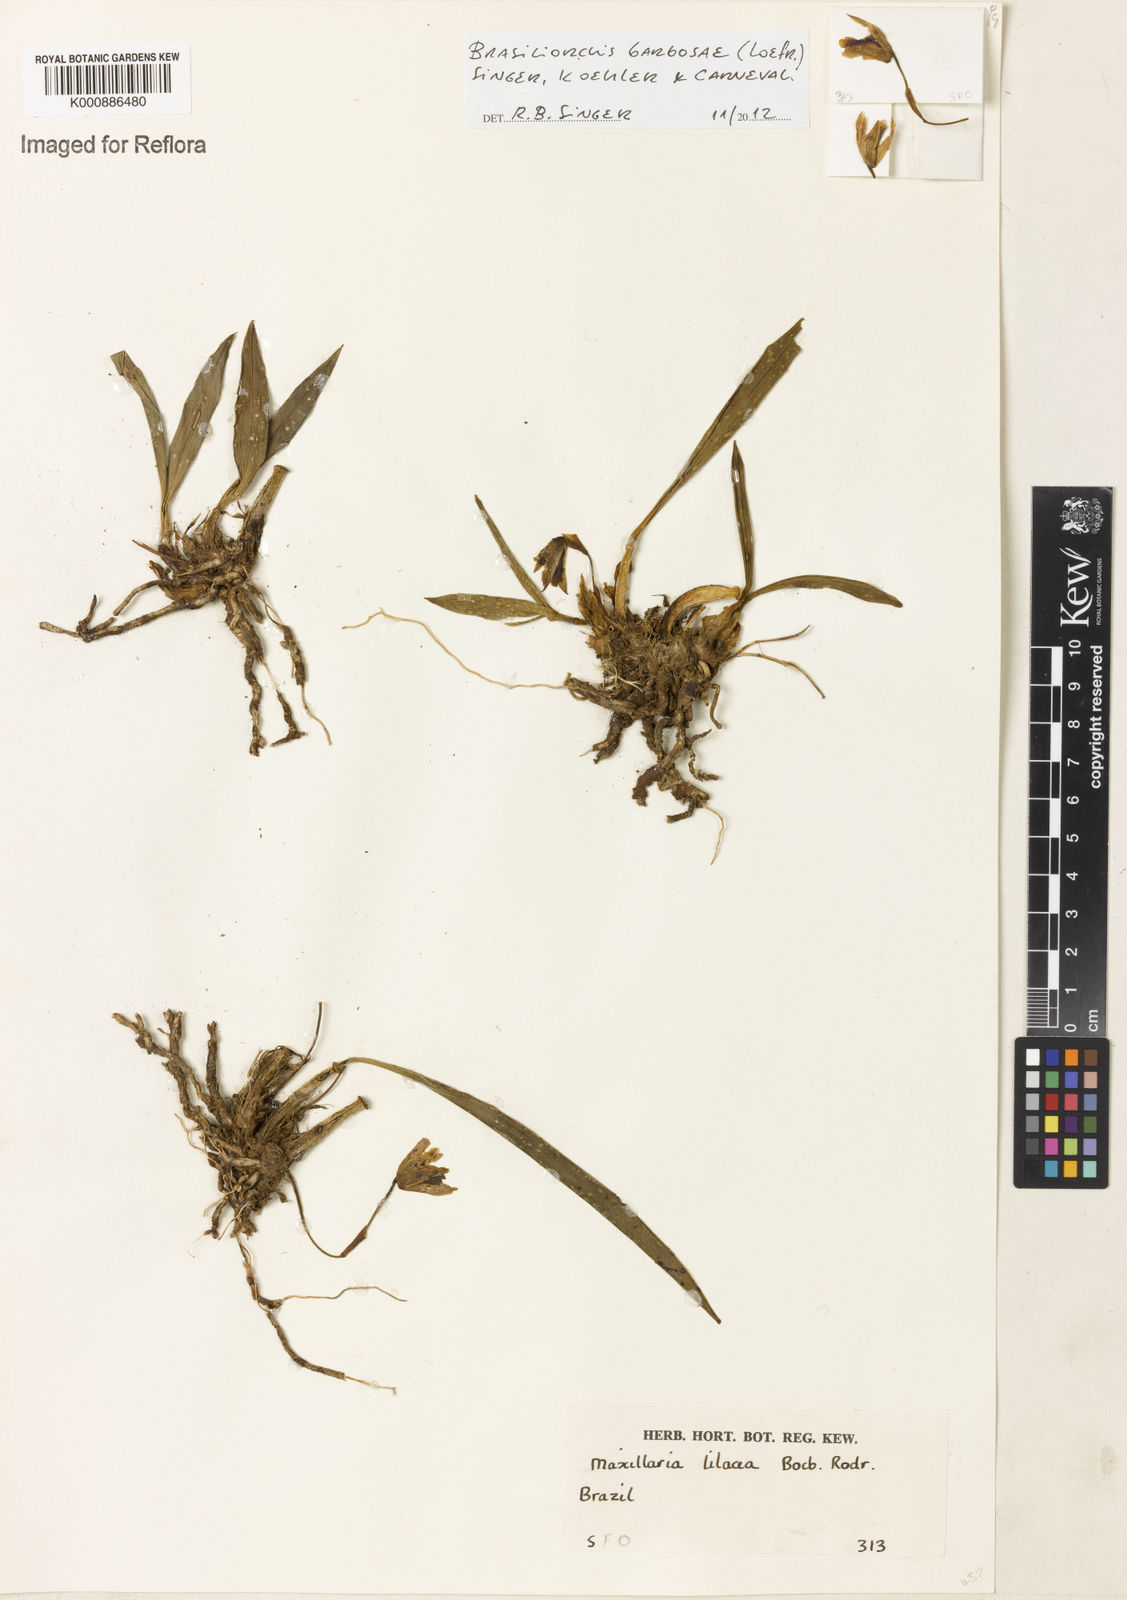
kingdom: Plantae
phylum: Tracheophyta
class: Liliopsida
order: Asparagales
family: Orchidaceae
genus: Maxillaria
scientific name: Maxillaria lilacea
